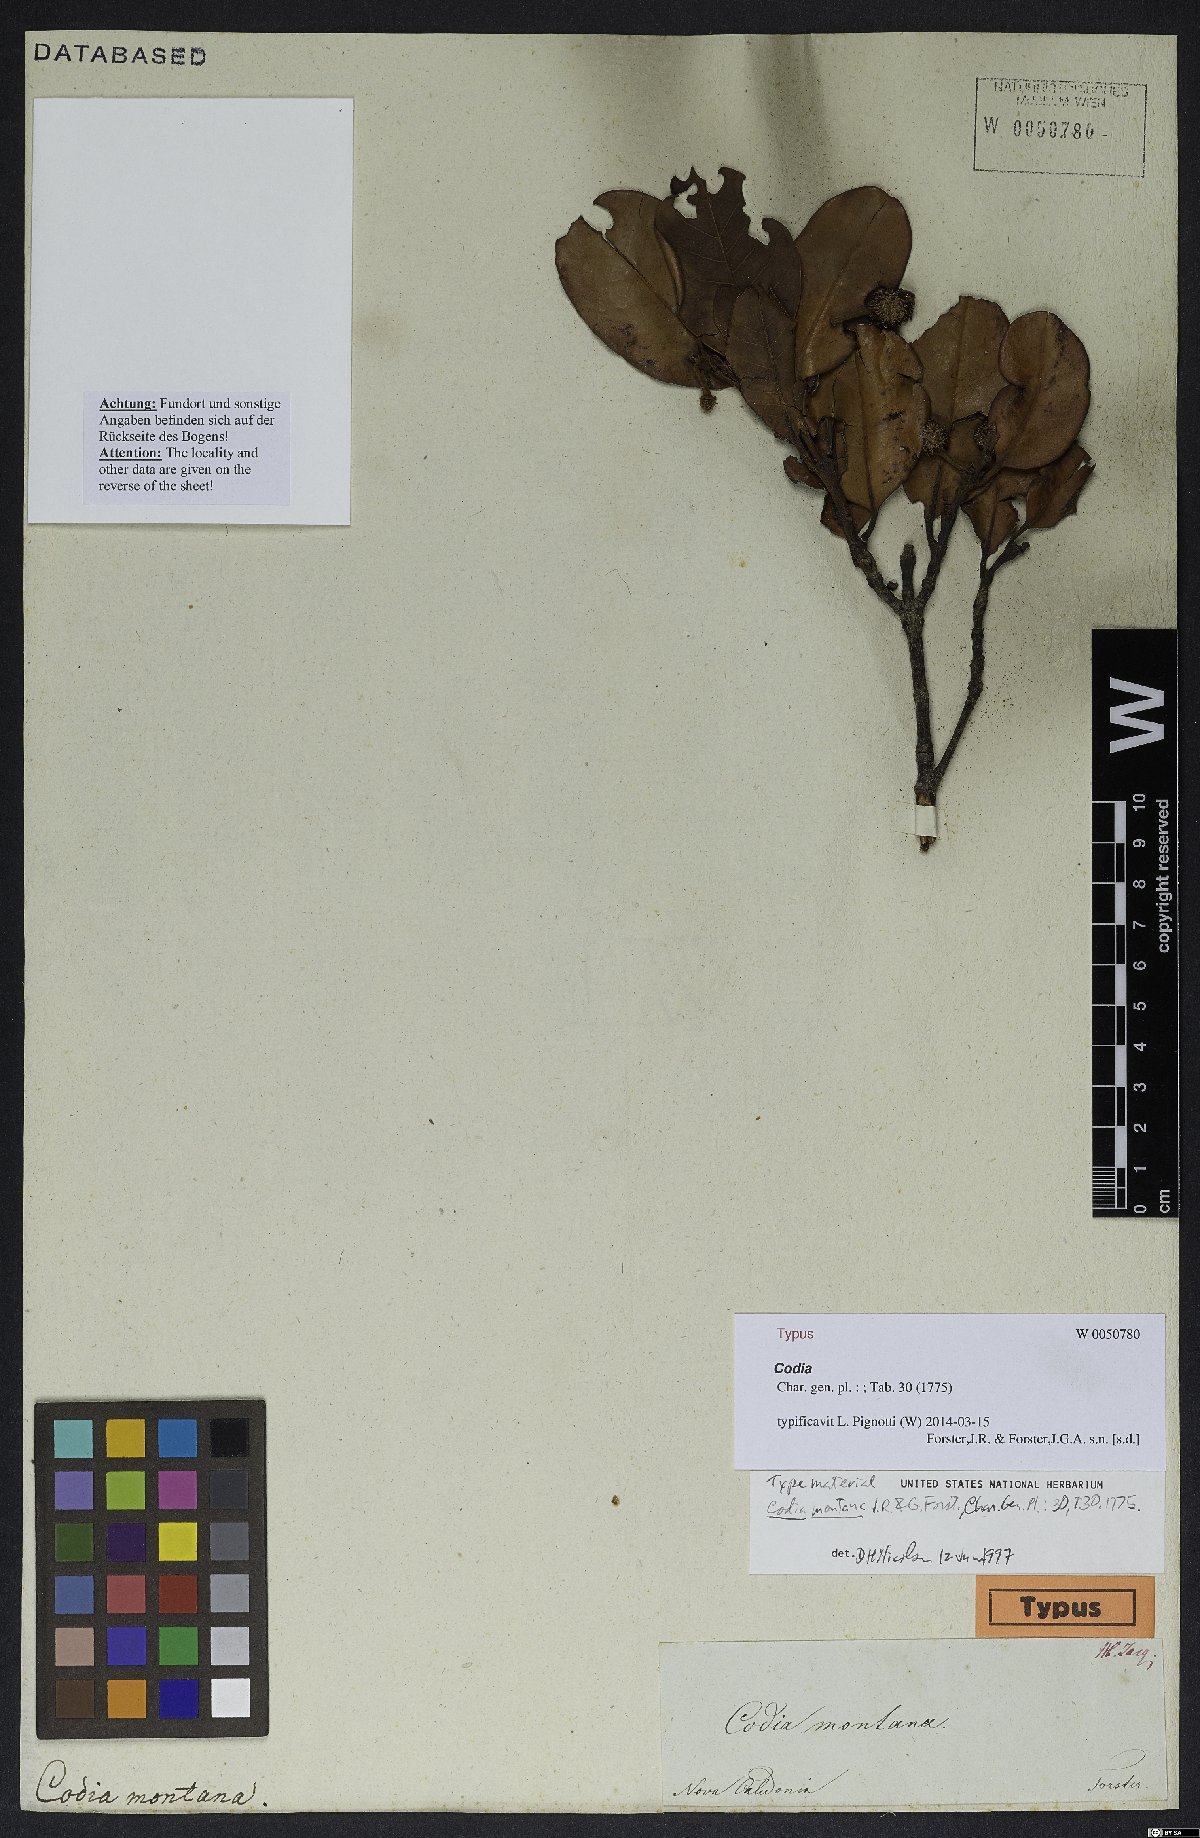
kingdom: Plantae
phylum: Tracheophyta
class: Magnoliopsida
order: Oxalidales
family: Cunoniaceae
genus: Codia
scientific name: Codia montana
